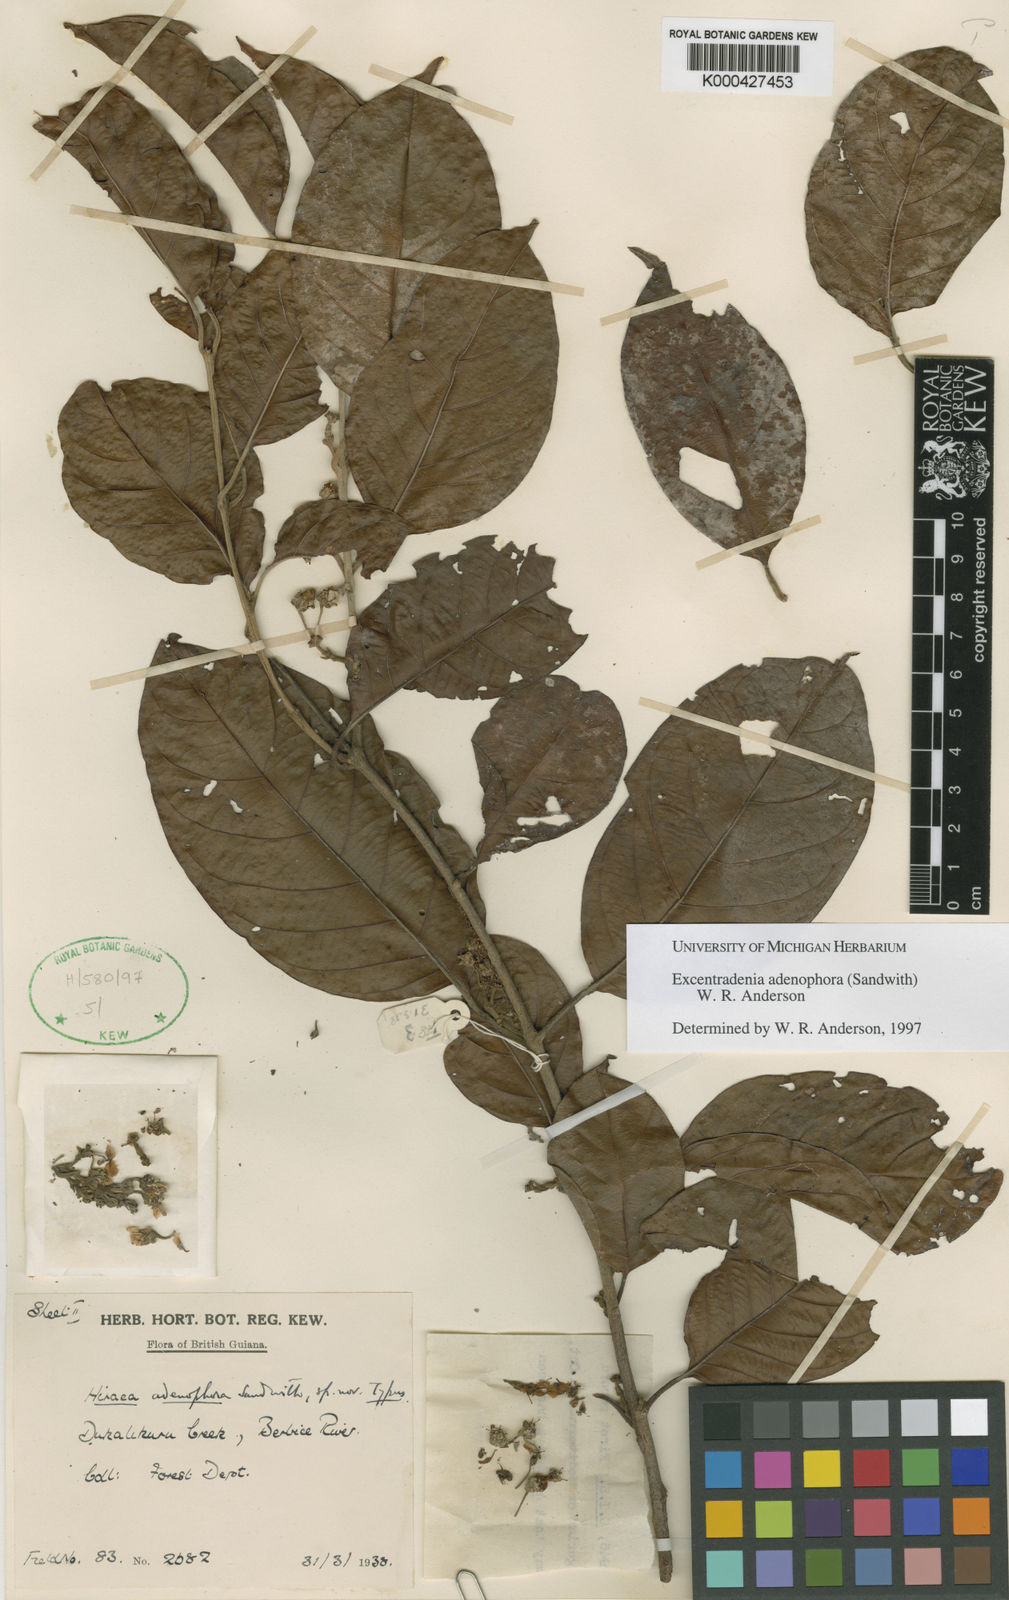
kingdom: Plantae
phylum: Tracheophyta
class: Magnoliopsida
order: Malpighiales
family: Malpighiaceae
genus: Excentradenia
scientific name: Excentradenia adenophora
